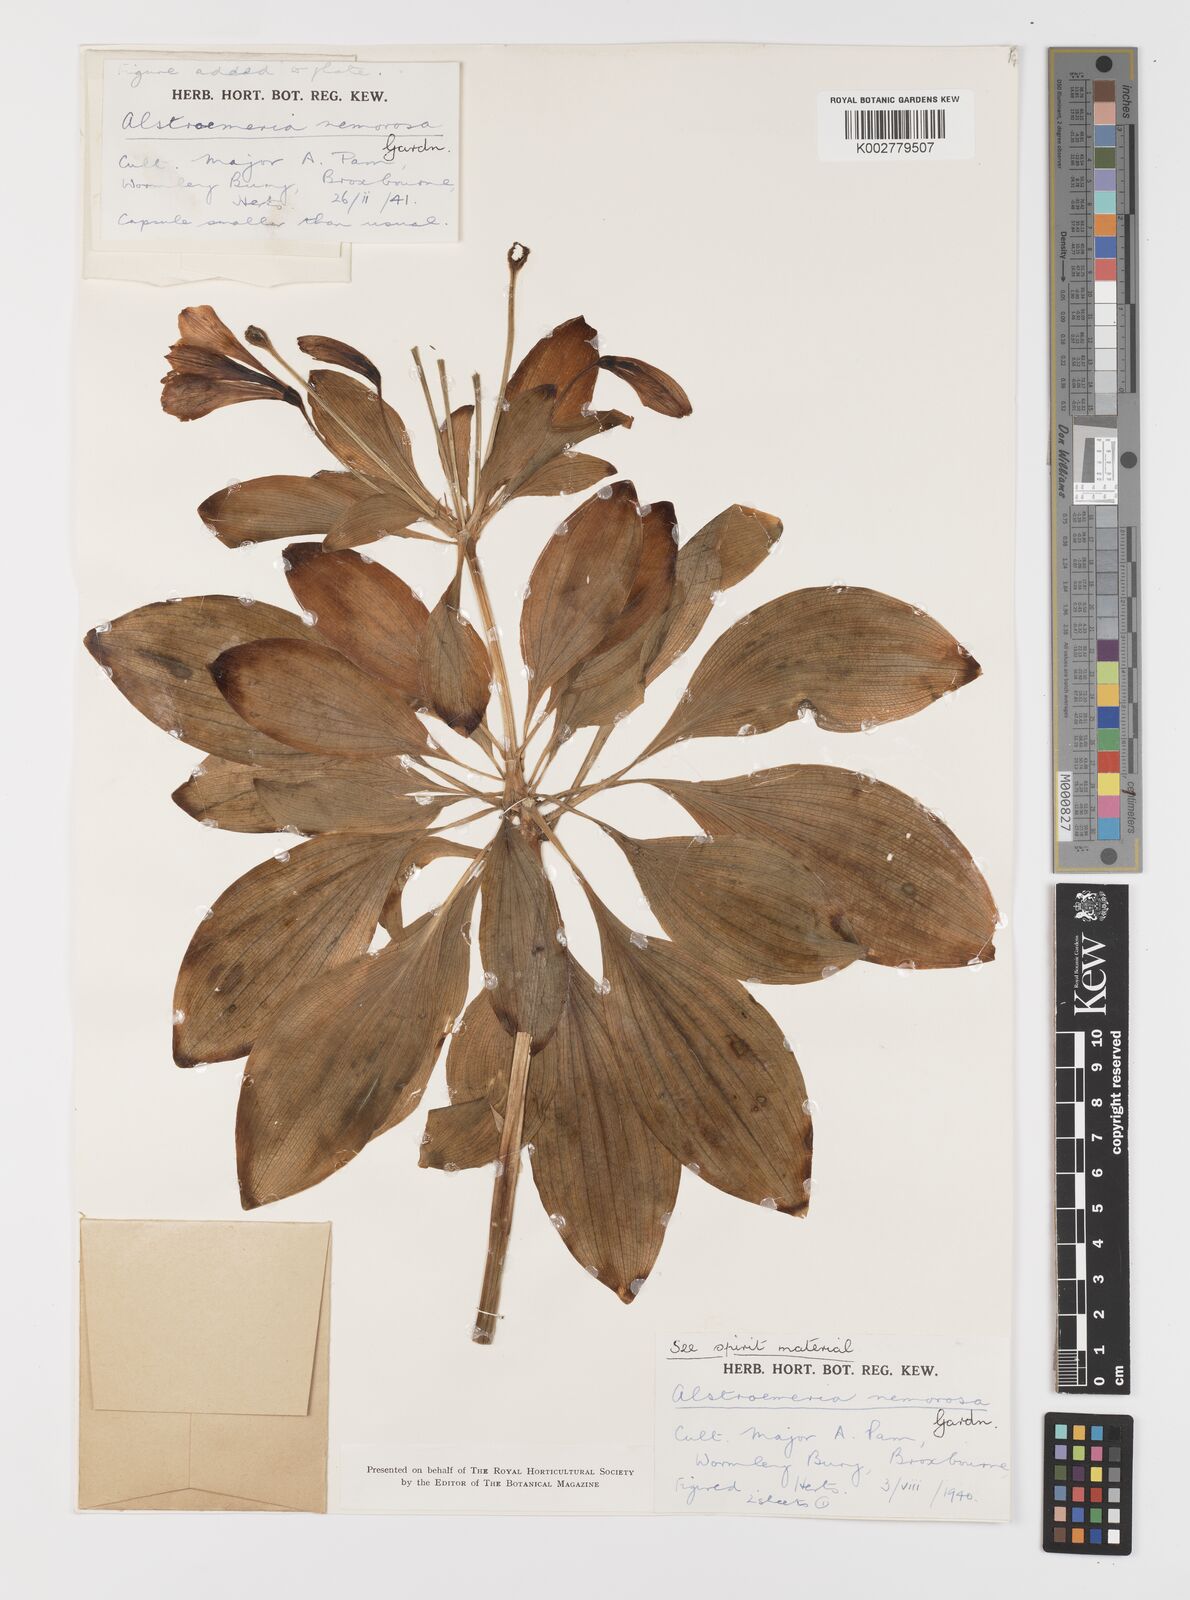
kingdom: Plantae
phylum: Tracheophyta
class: Liliopsida
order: Liliales
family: Alstroemeriaceae
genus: Alstroemeria
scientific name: Alstroemeria cunha
